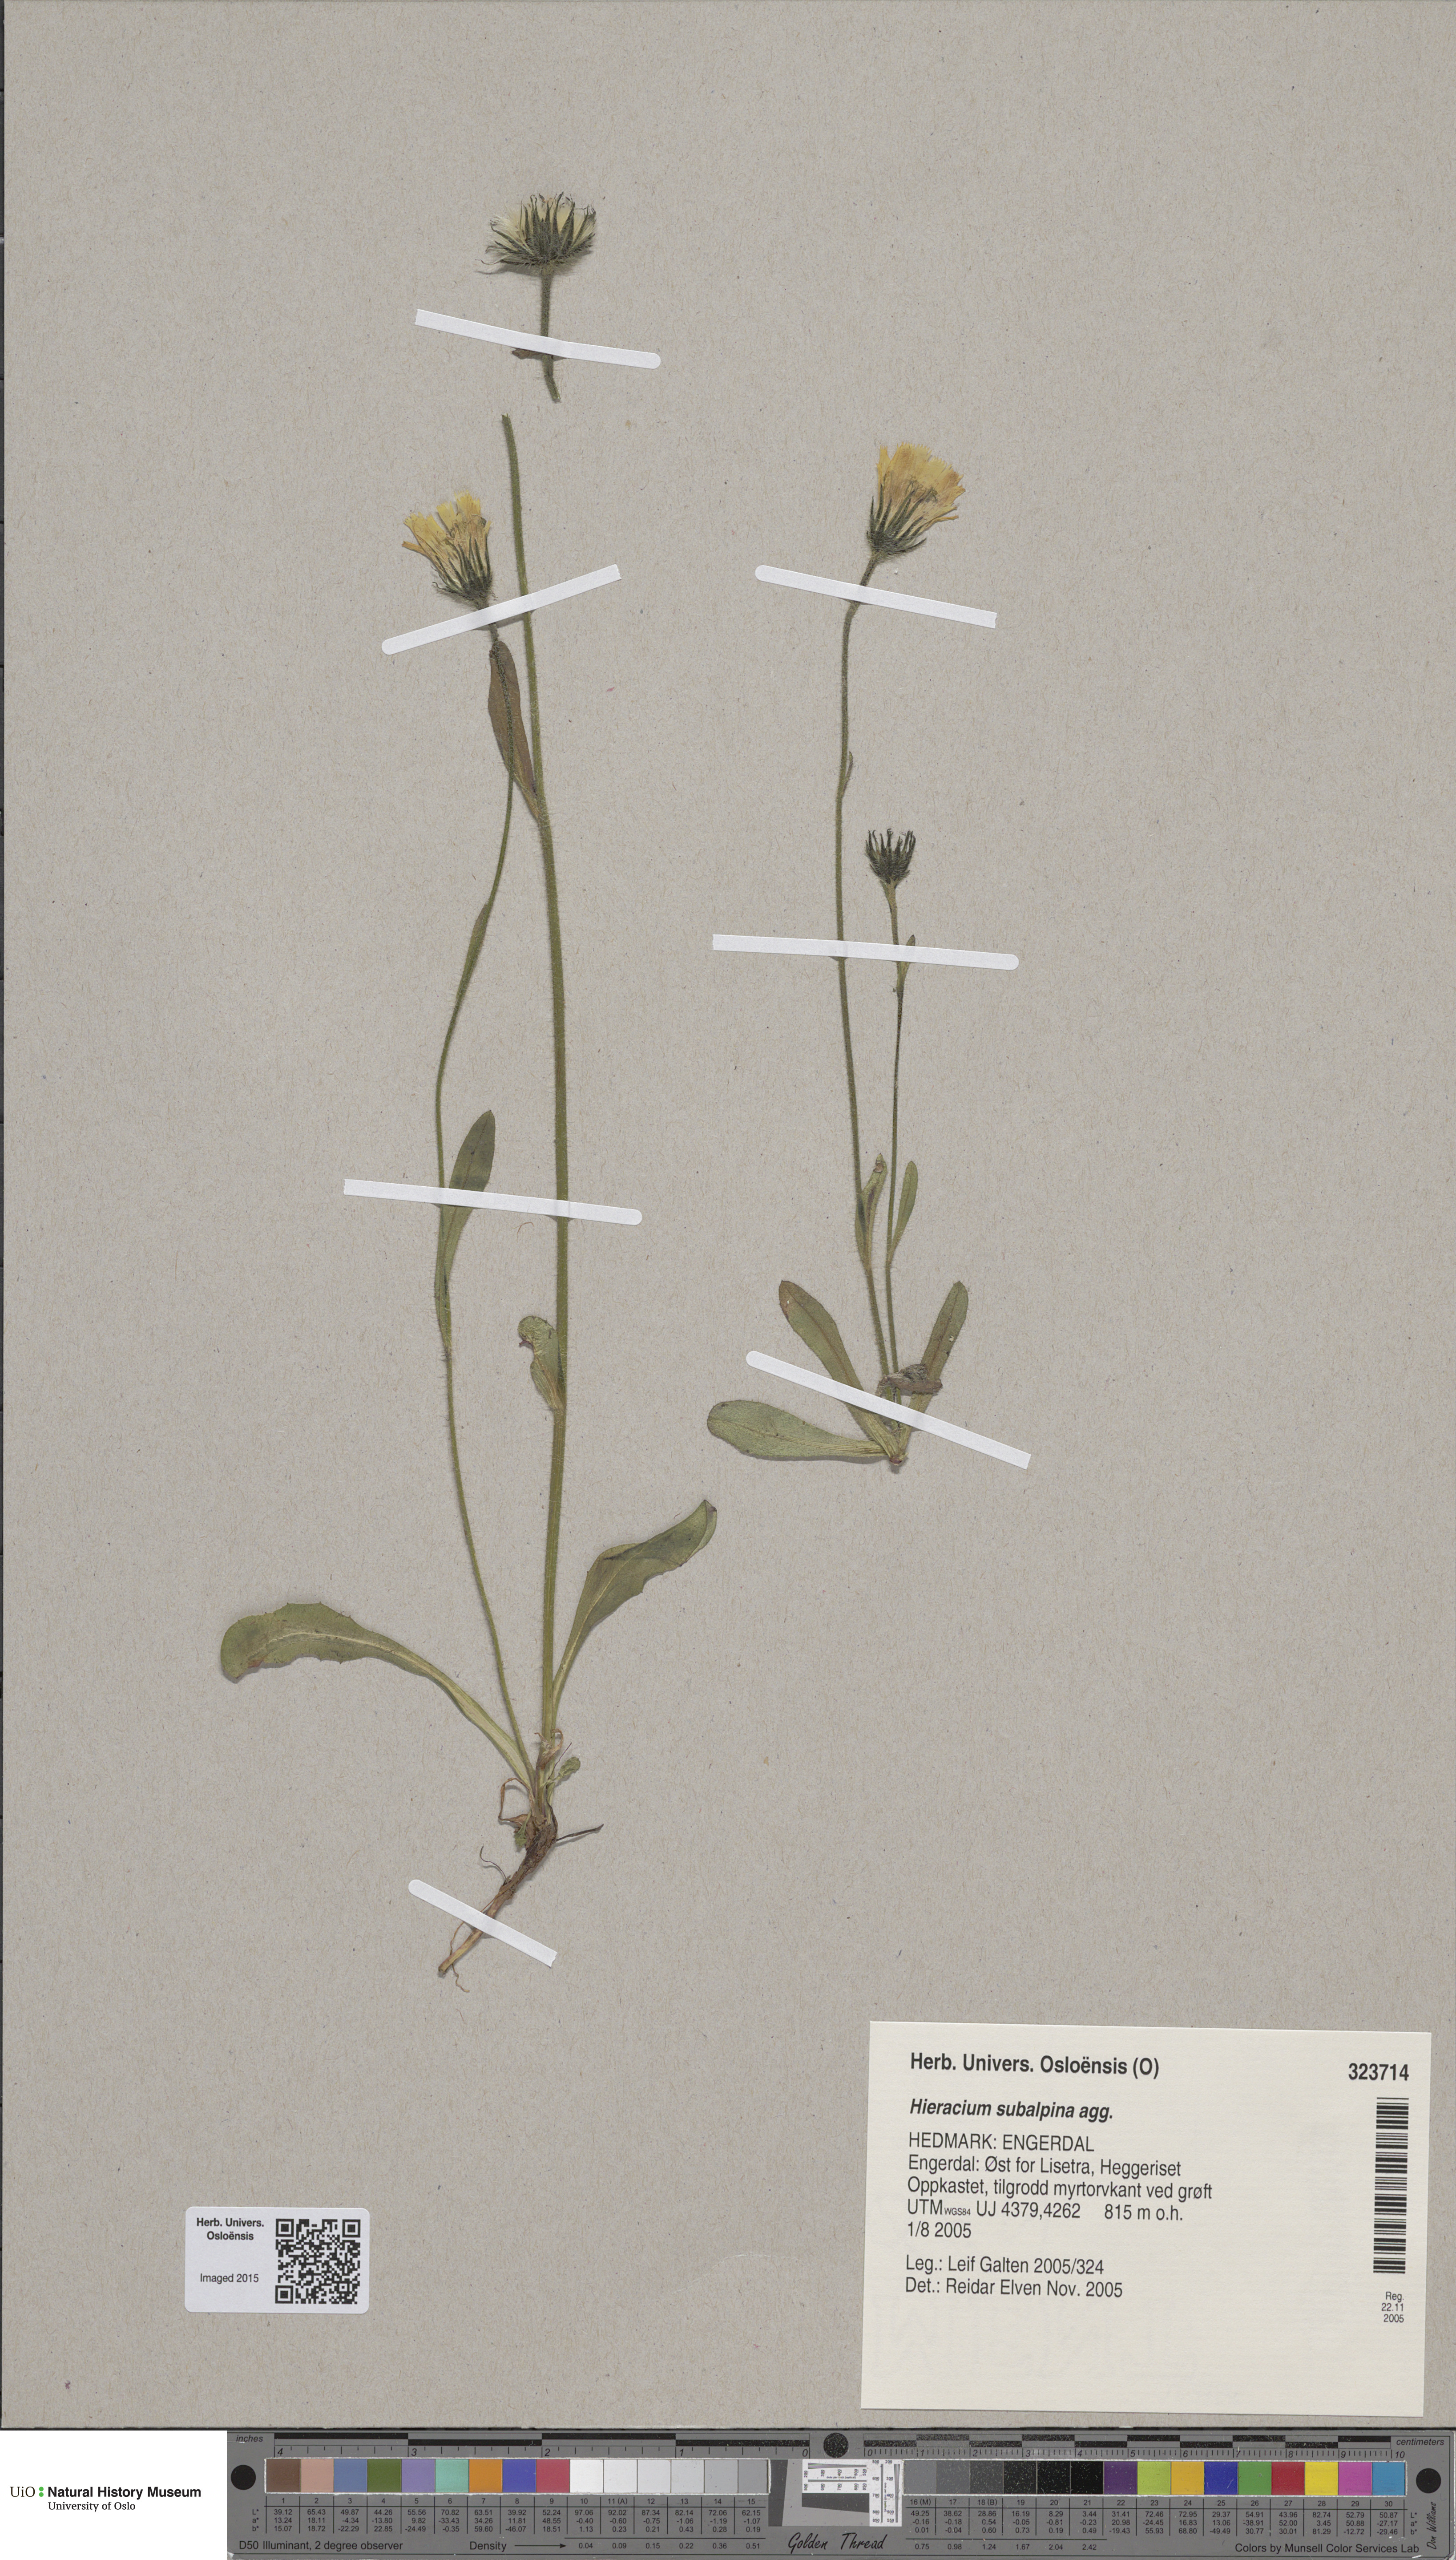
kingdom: Plantae
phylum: Tracheophyta
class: Magnoliopsida
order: Asterales
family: Asteraceae
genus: Hieracium
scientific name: Hieracium umbrosum
